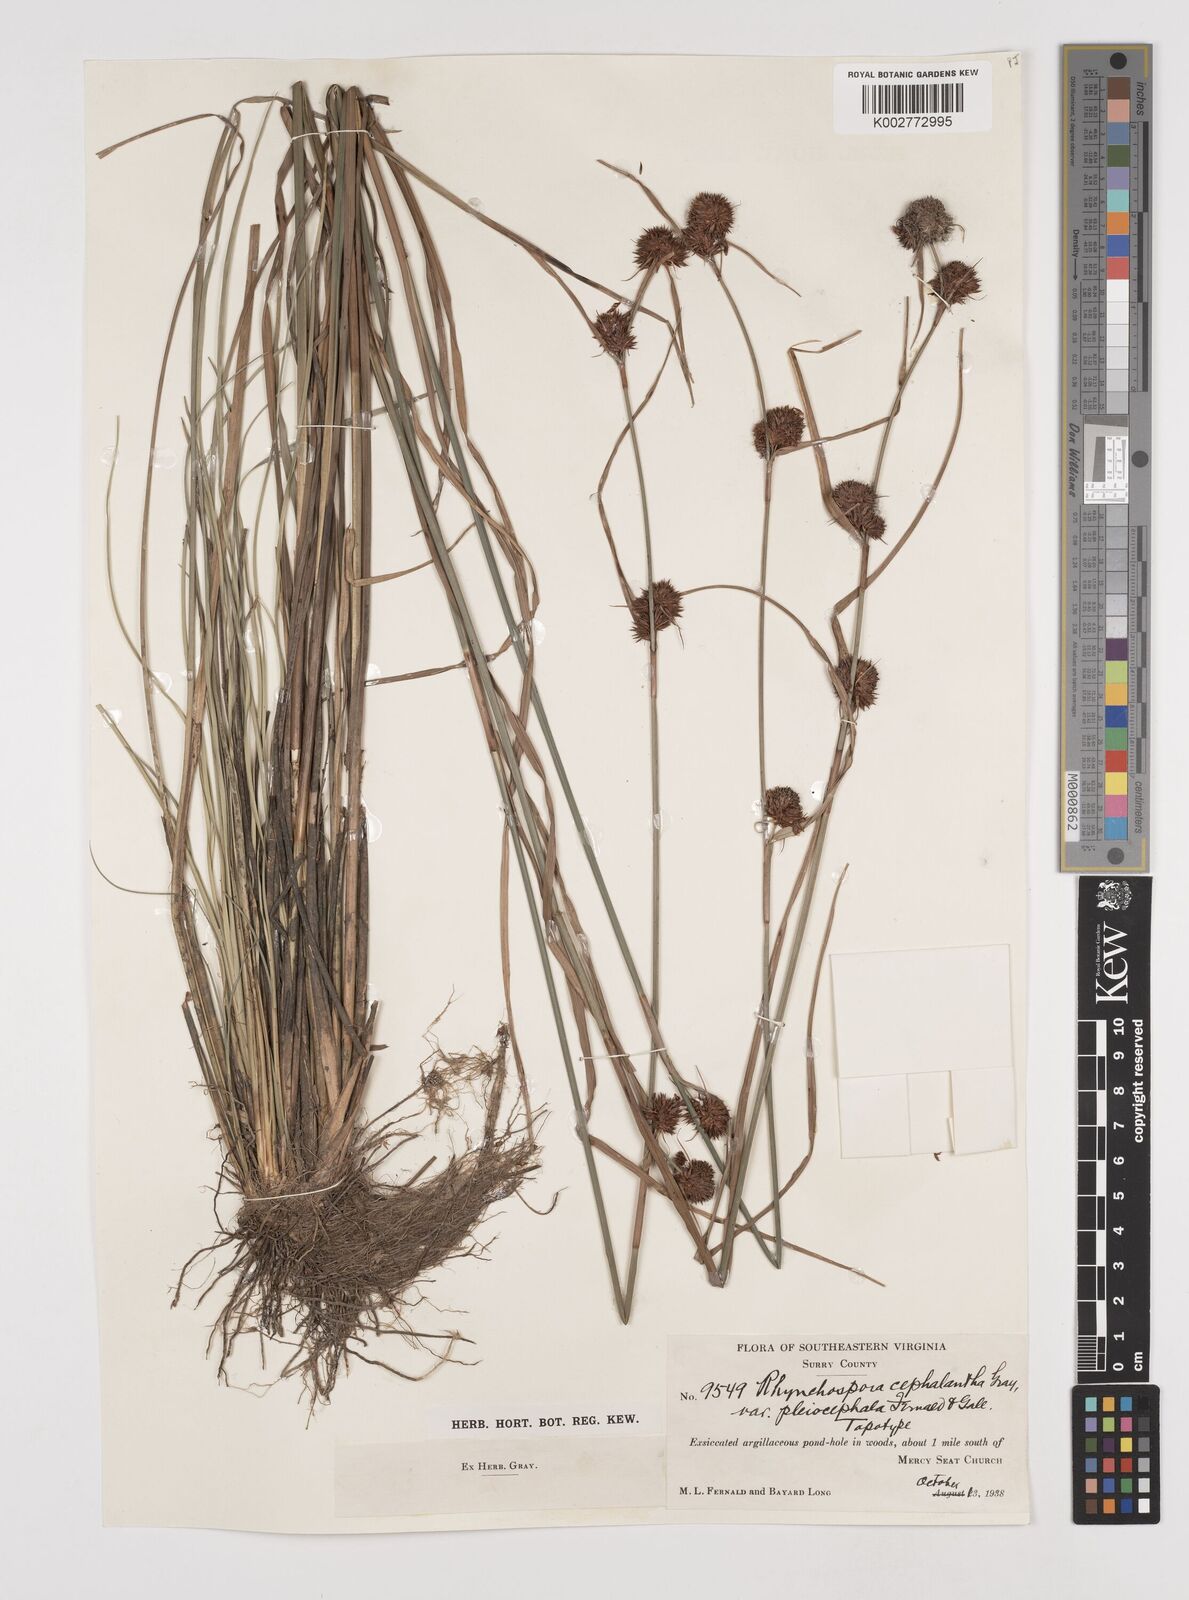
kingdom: Plantae
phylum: Tracheophyta
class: Liliopsida
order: Poales
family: Cyperaceae
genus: Rhynchospora
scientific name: Rhynchospora cephalantha
